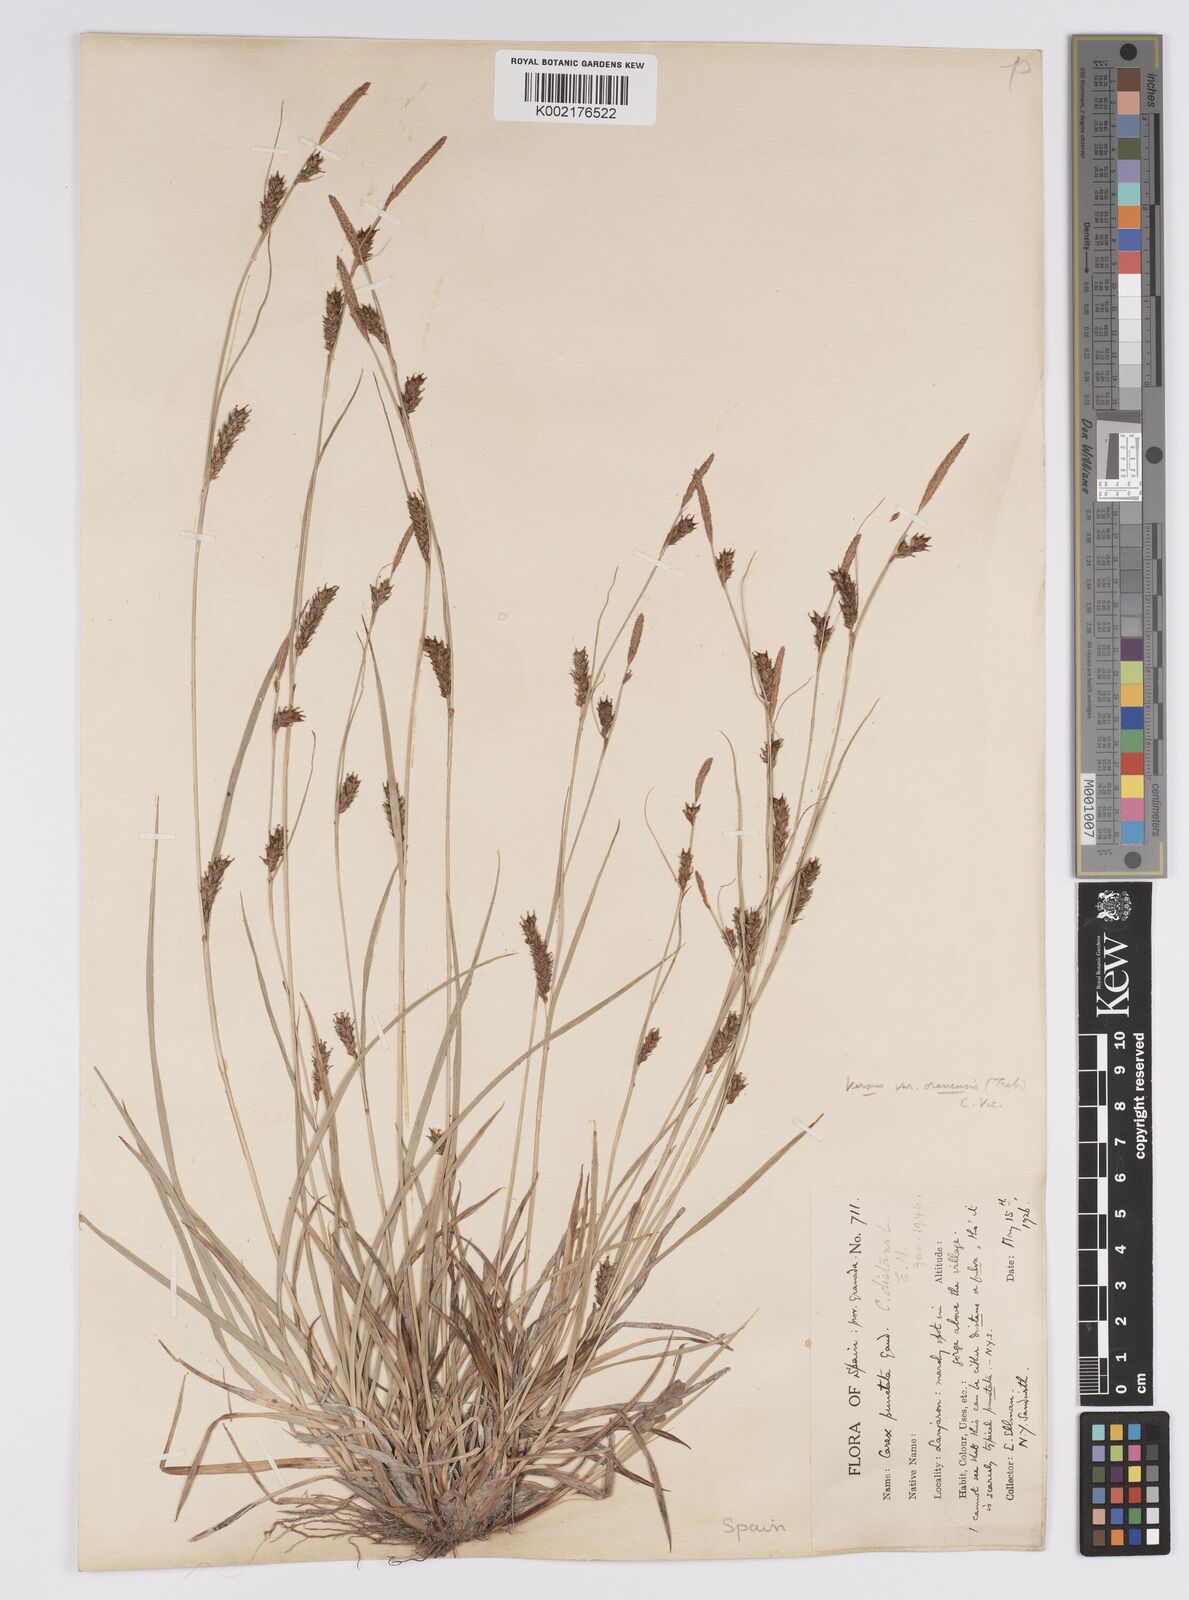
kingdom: Plantae
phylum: Tracheophyta
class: Liliopsida
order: Poales
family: Cyperaceae
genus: Carex
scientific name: Carex distans
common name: Distant sedge
